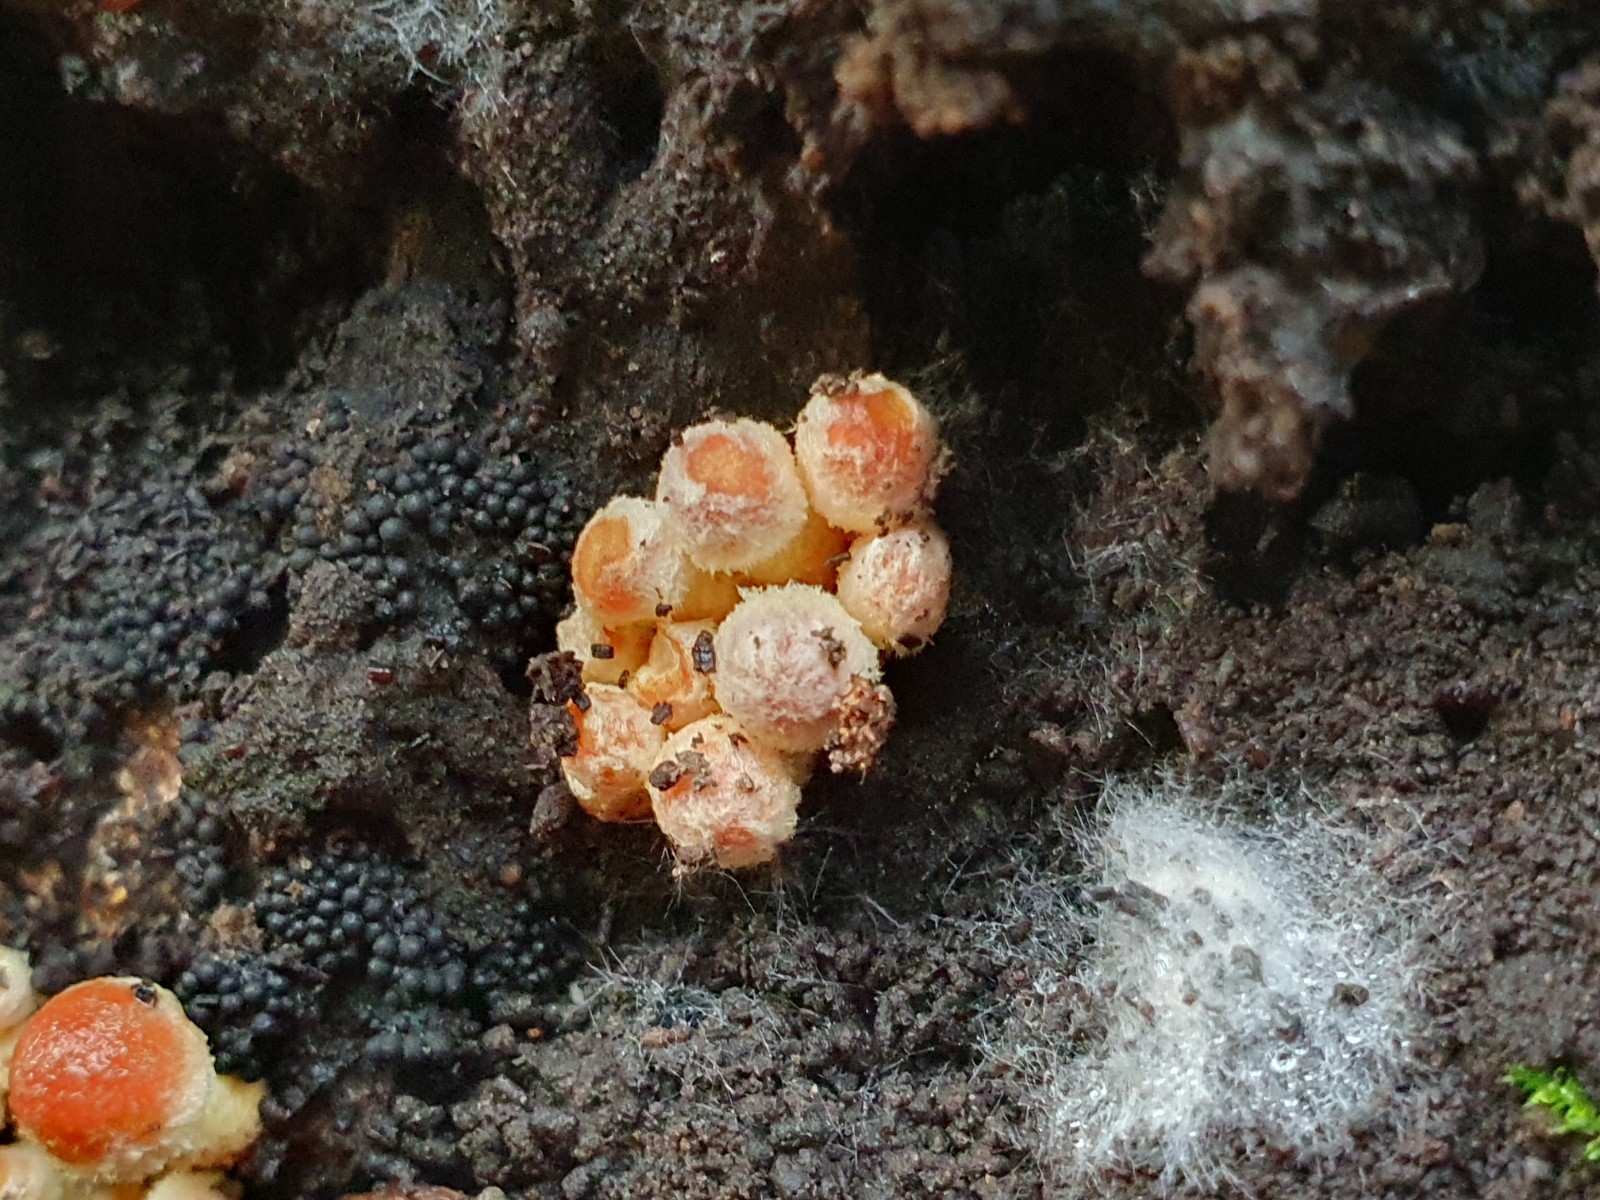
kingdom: Fungi
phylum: Ascomycota
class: Sordariomycetes
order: Sordariales
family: Helminthosphaeriaceae
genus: Ruzenia
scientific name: Ruzenia spermoides
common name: glat børstekerne
